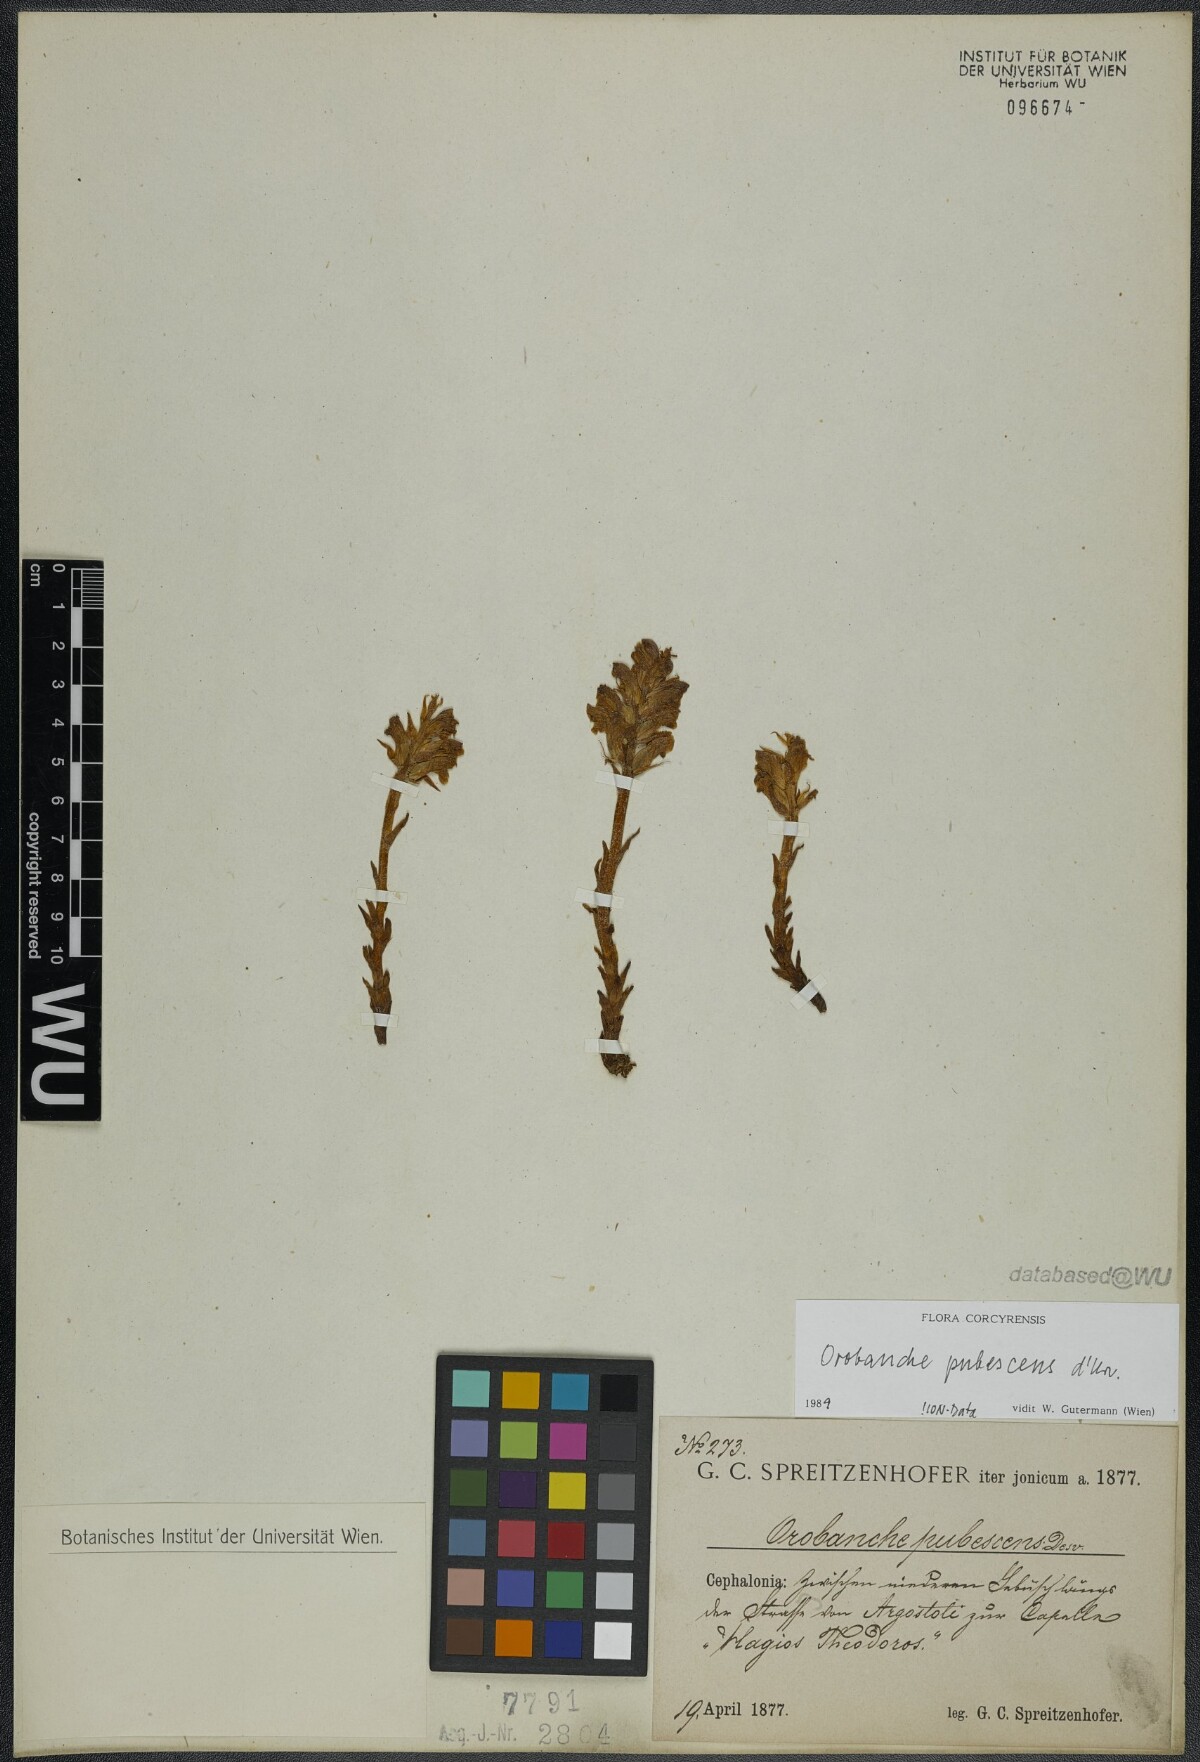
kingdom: Plantae
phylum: Tracheophyta
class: Magnoliopsida
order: Lamiales
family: Orobanchaceae
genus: Orobanche
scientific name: Orobanche pubescens
